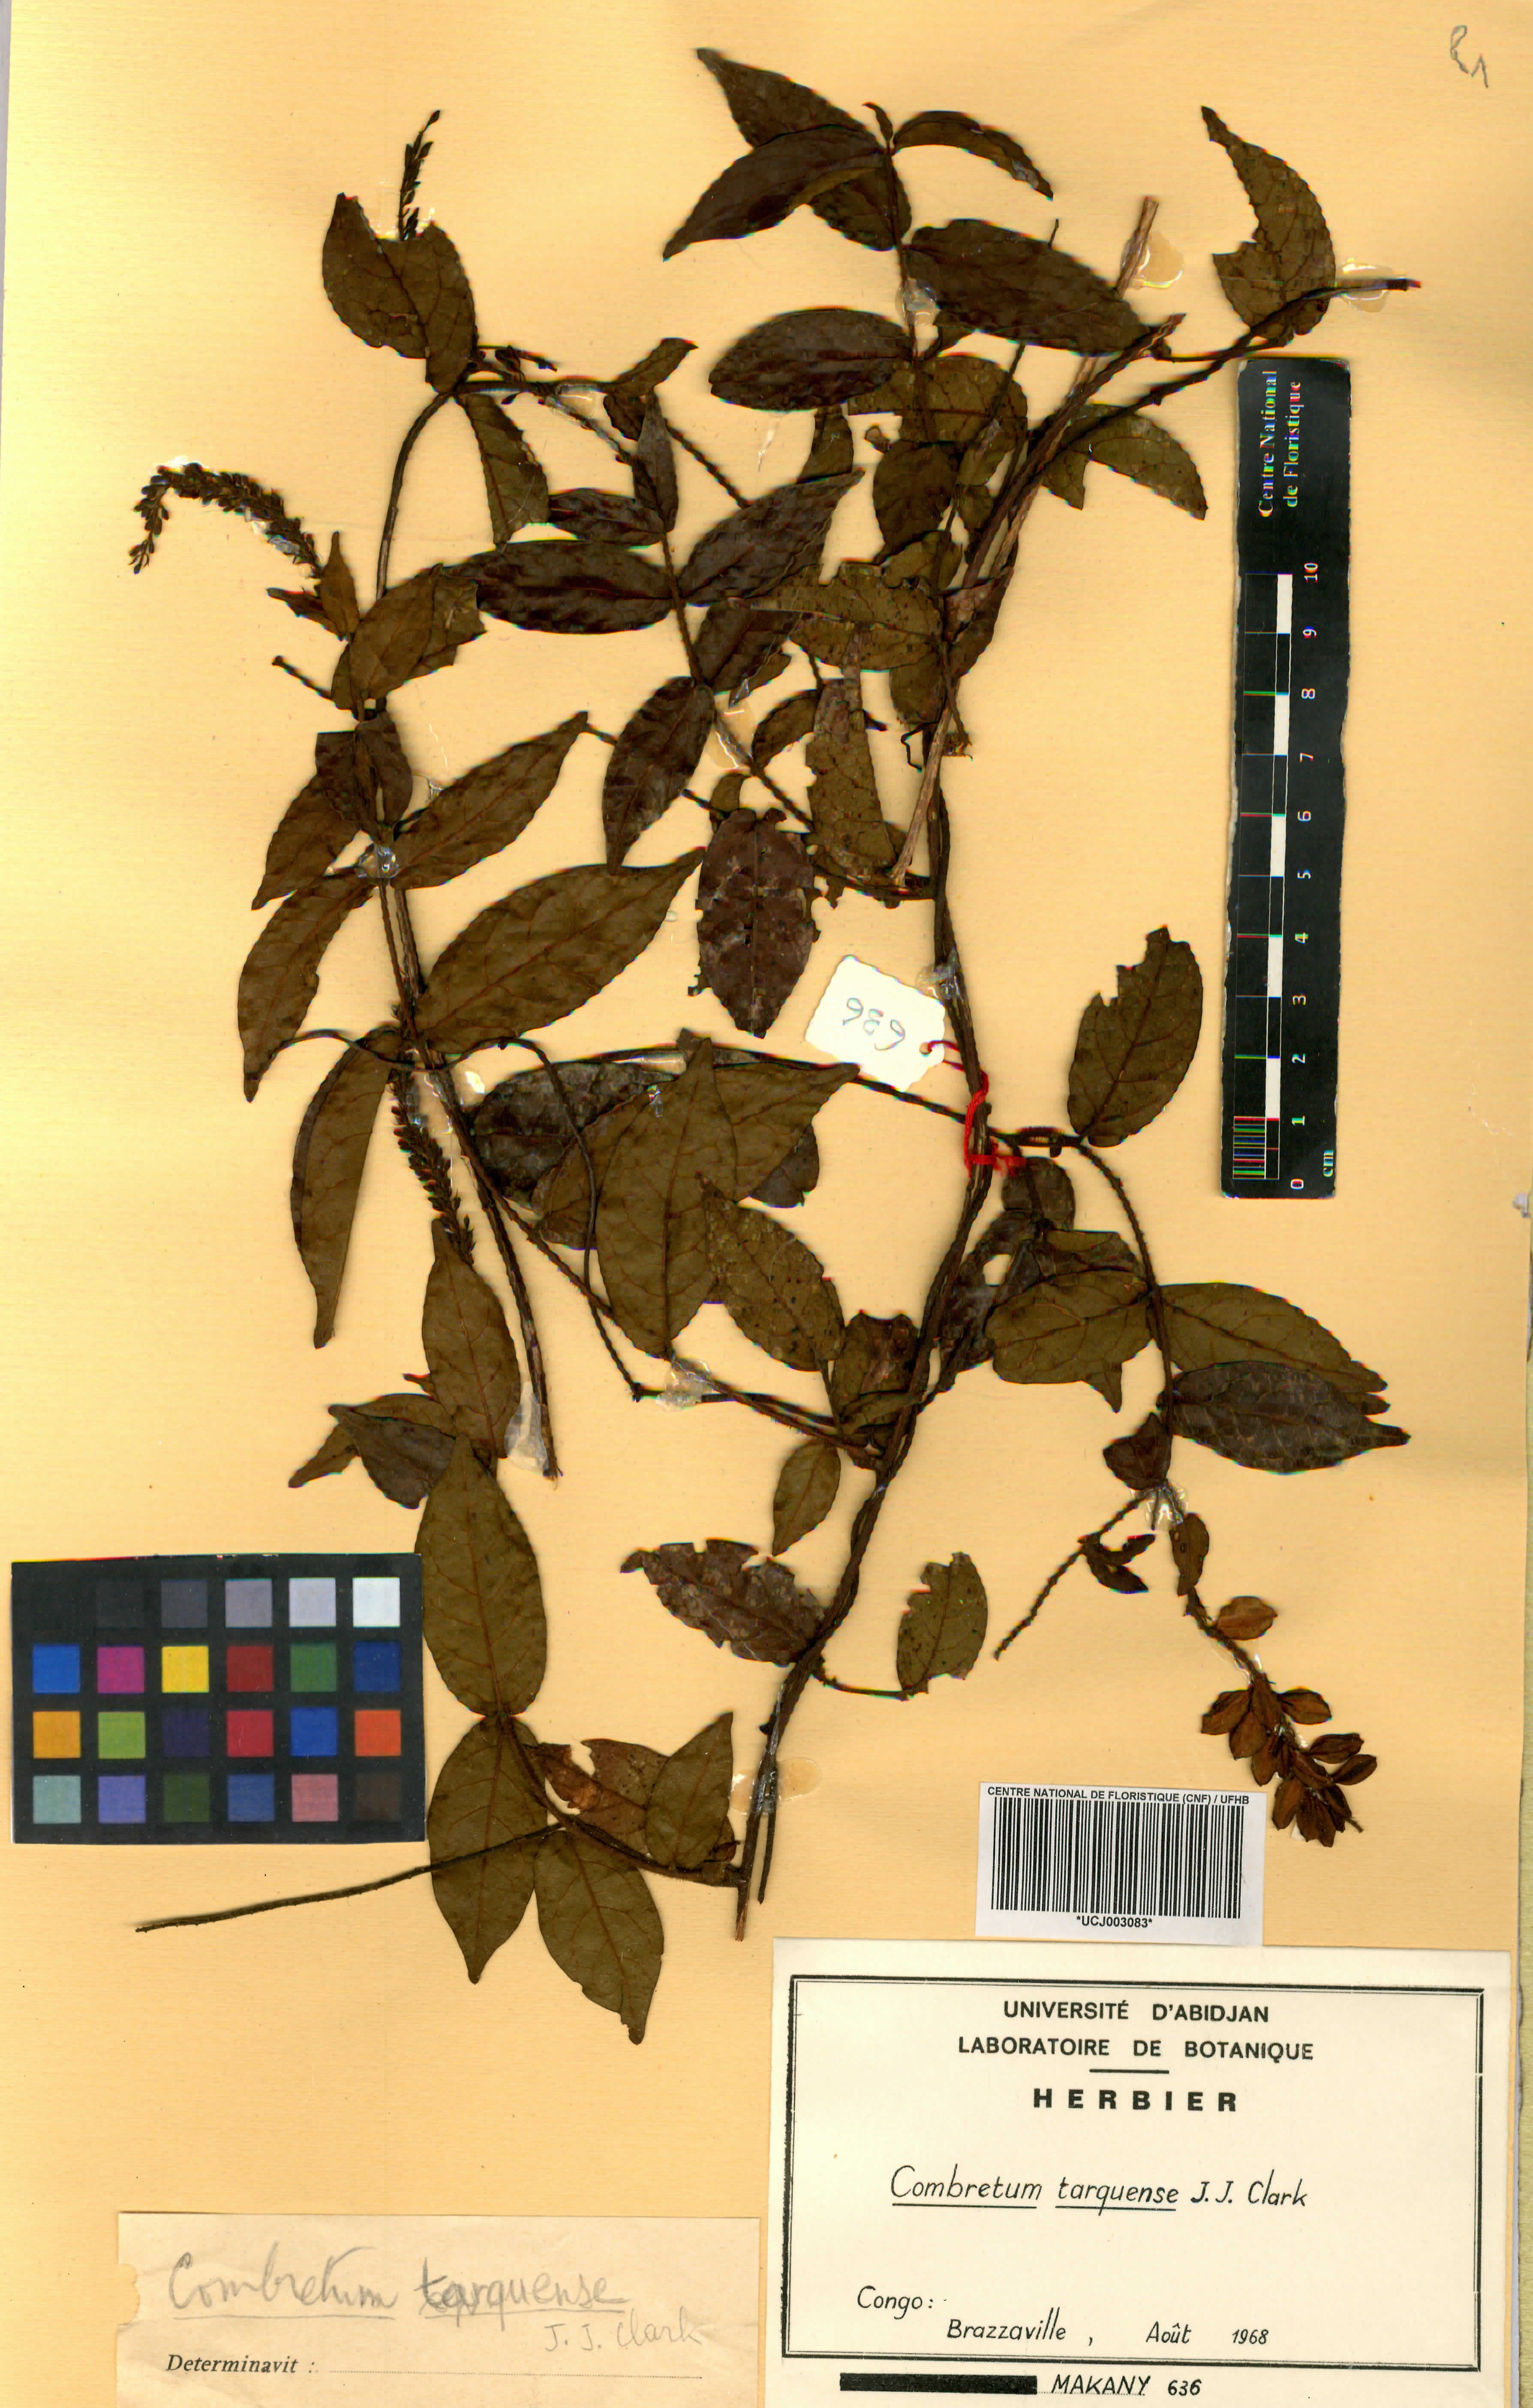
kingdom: Plantae
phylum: Tracheophyta
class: Magnoliopsida
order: Myrtales
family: Combretaceae
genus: Combretum
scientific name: Combretum tarquense
